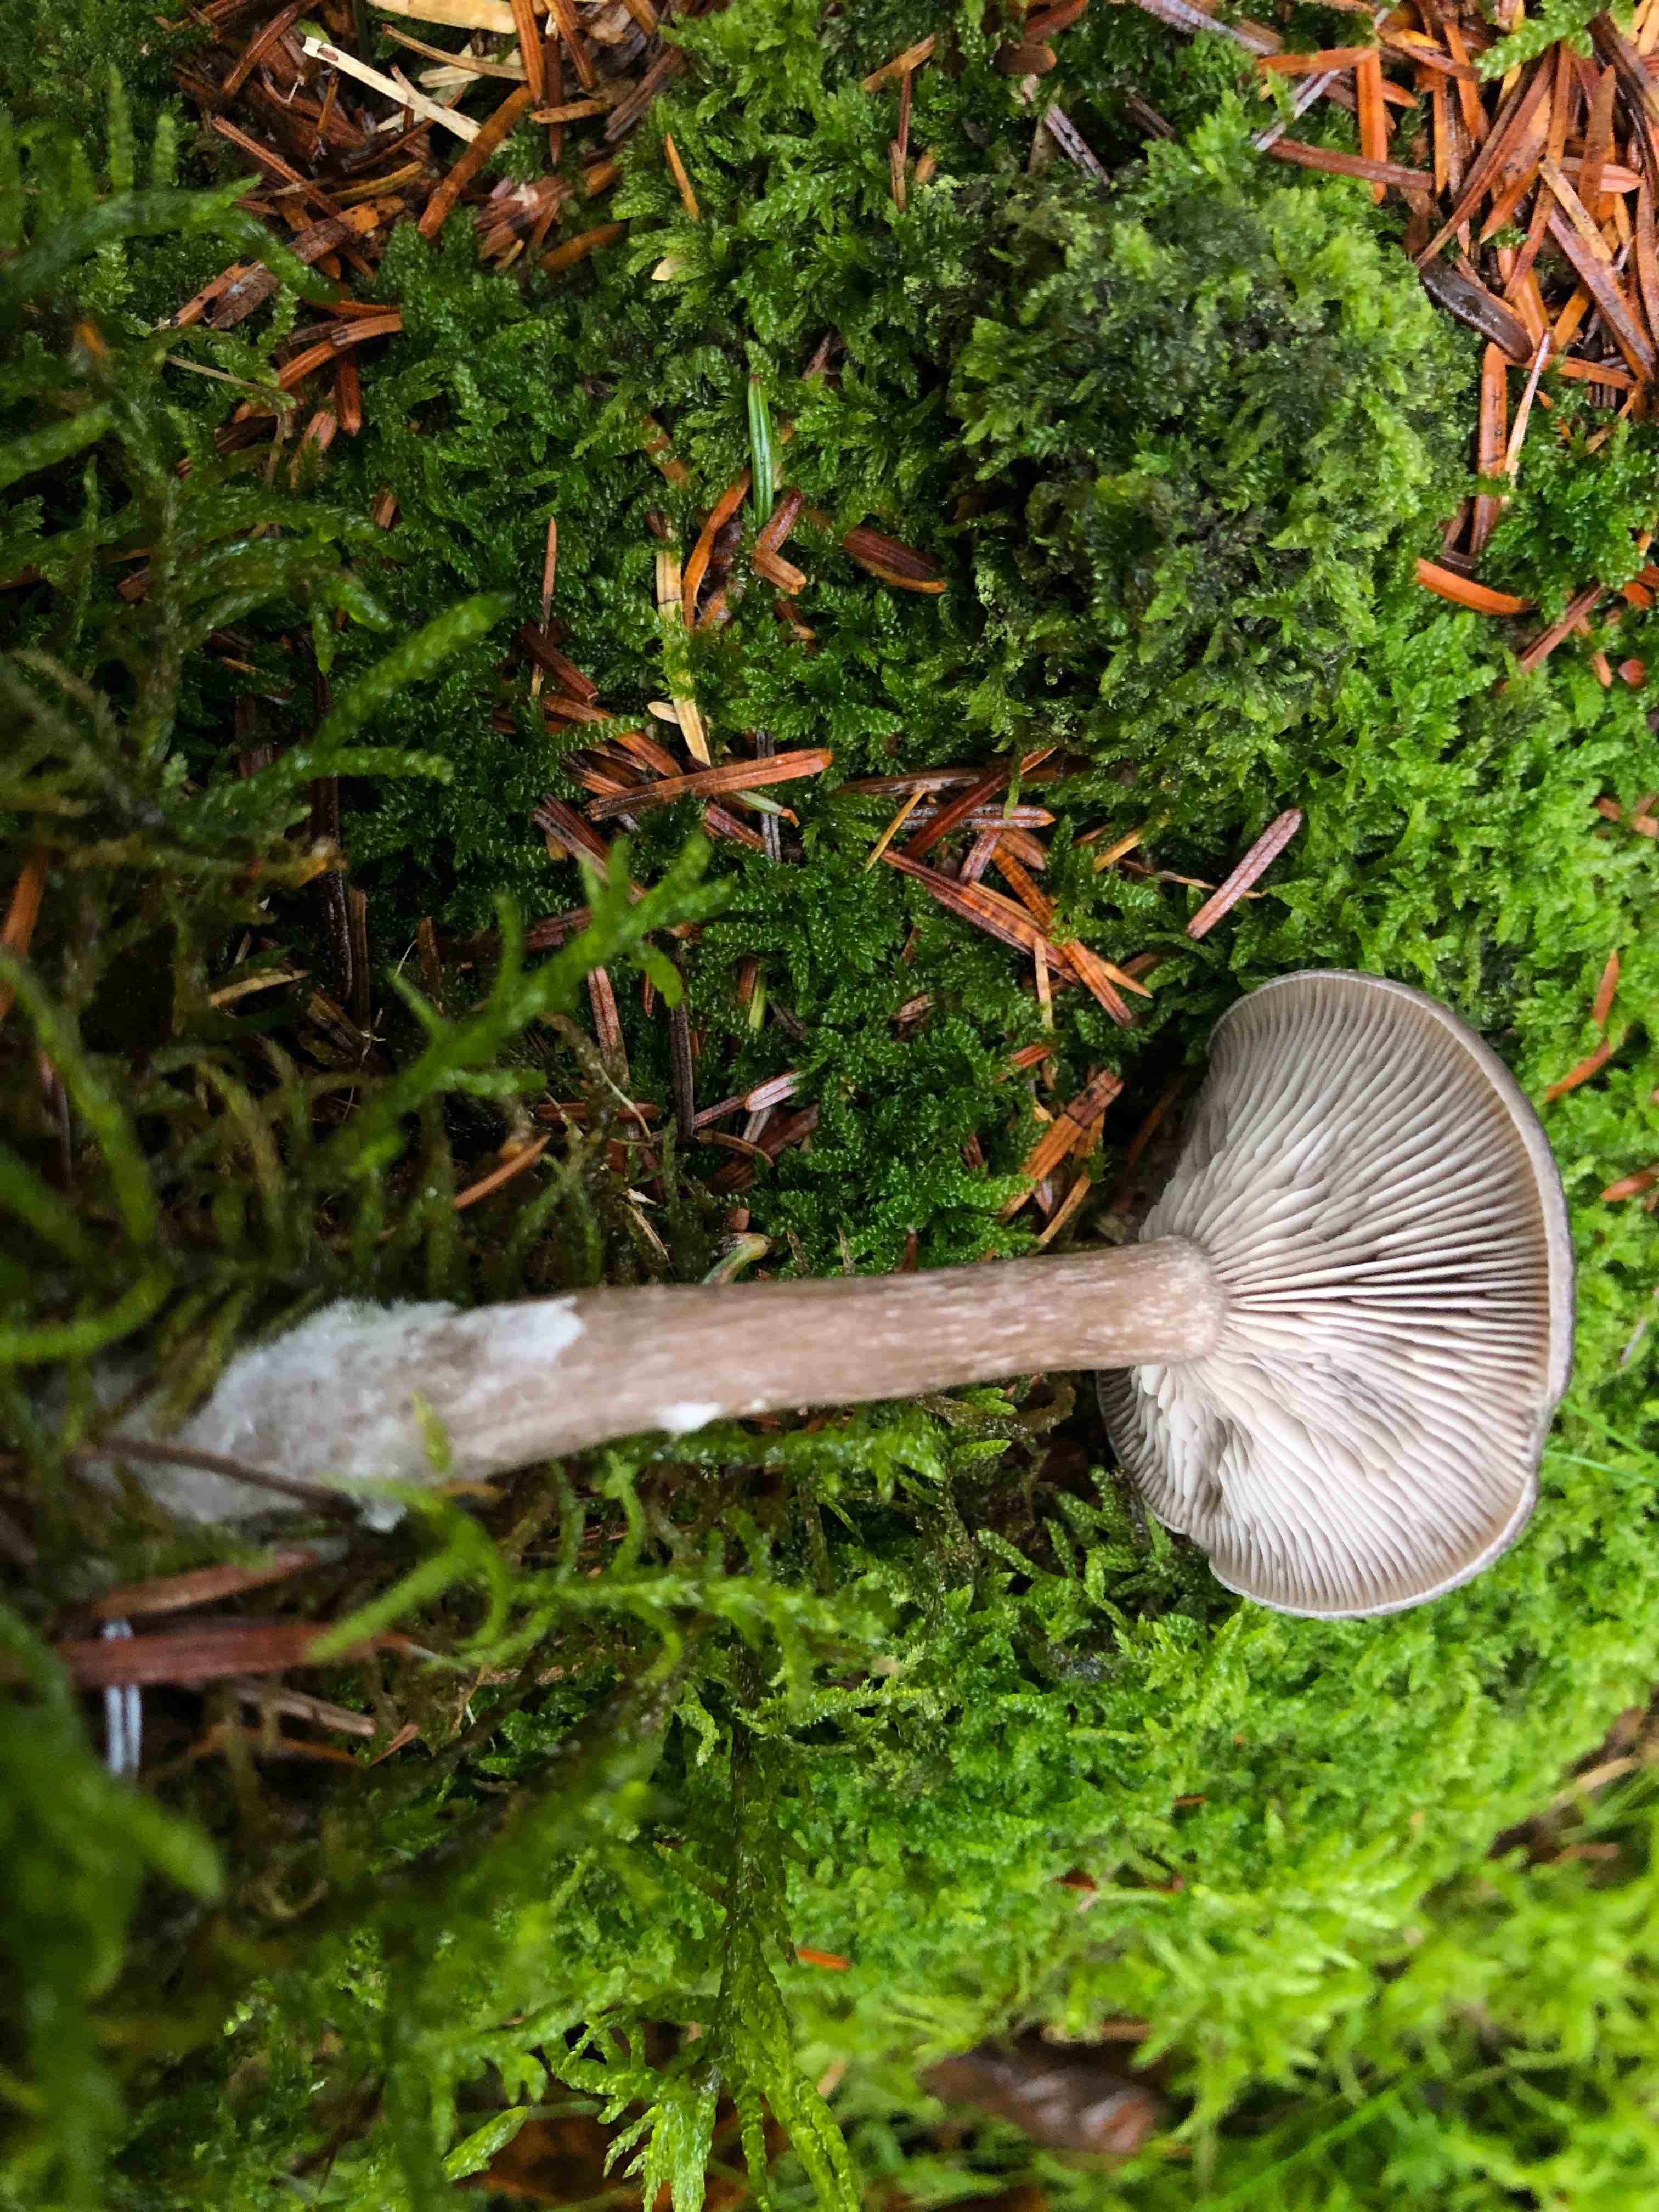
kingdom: Fungi
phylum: Basidiomycota
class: Agaricomycetes
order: Agaricales
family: Pseudoclitocybaceae
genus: Pseudoclitocybe
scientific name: Pseudoclitocybe cyathiformis
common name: almindelig bægertragthat
